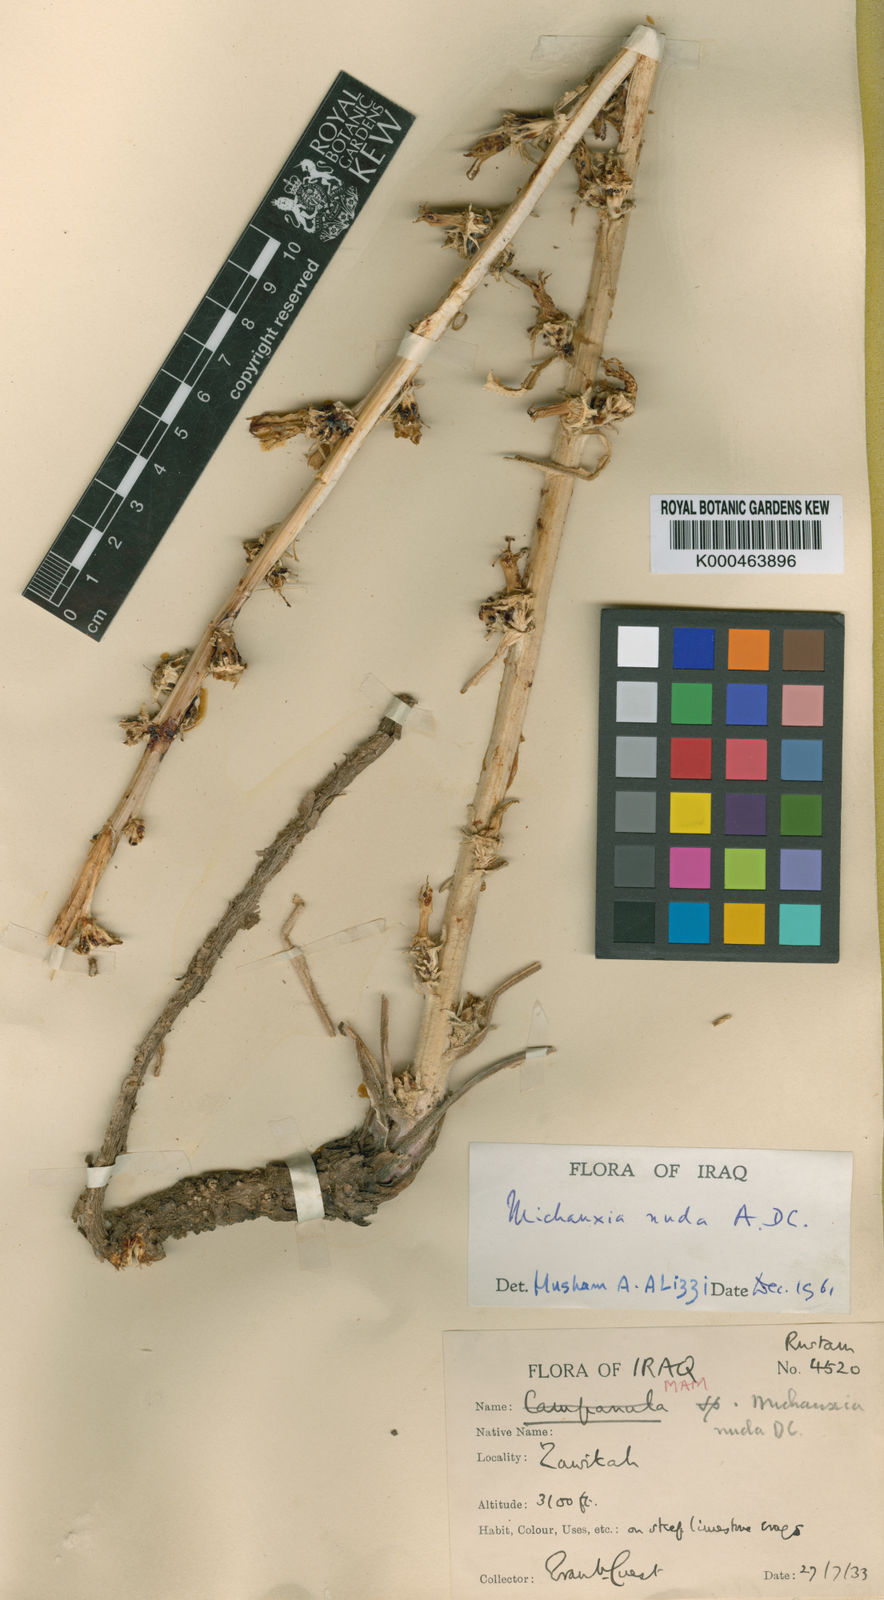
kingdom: Plantae
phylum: Tracheophyta
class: Magnoliopsida
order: Asterales
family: Campanulaceae
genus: Michauxia
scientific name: Michauxia nuda
